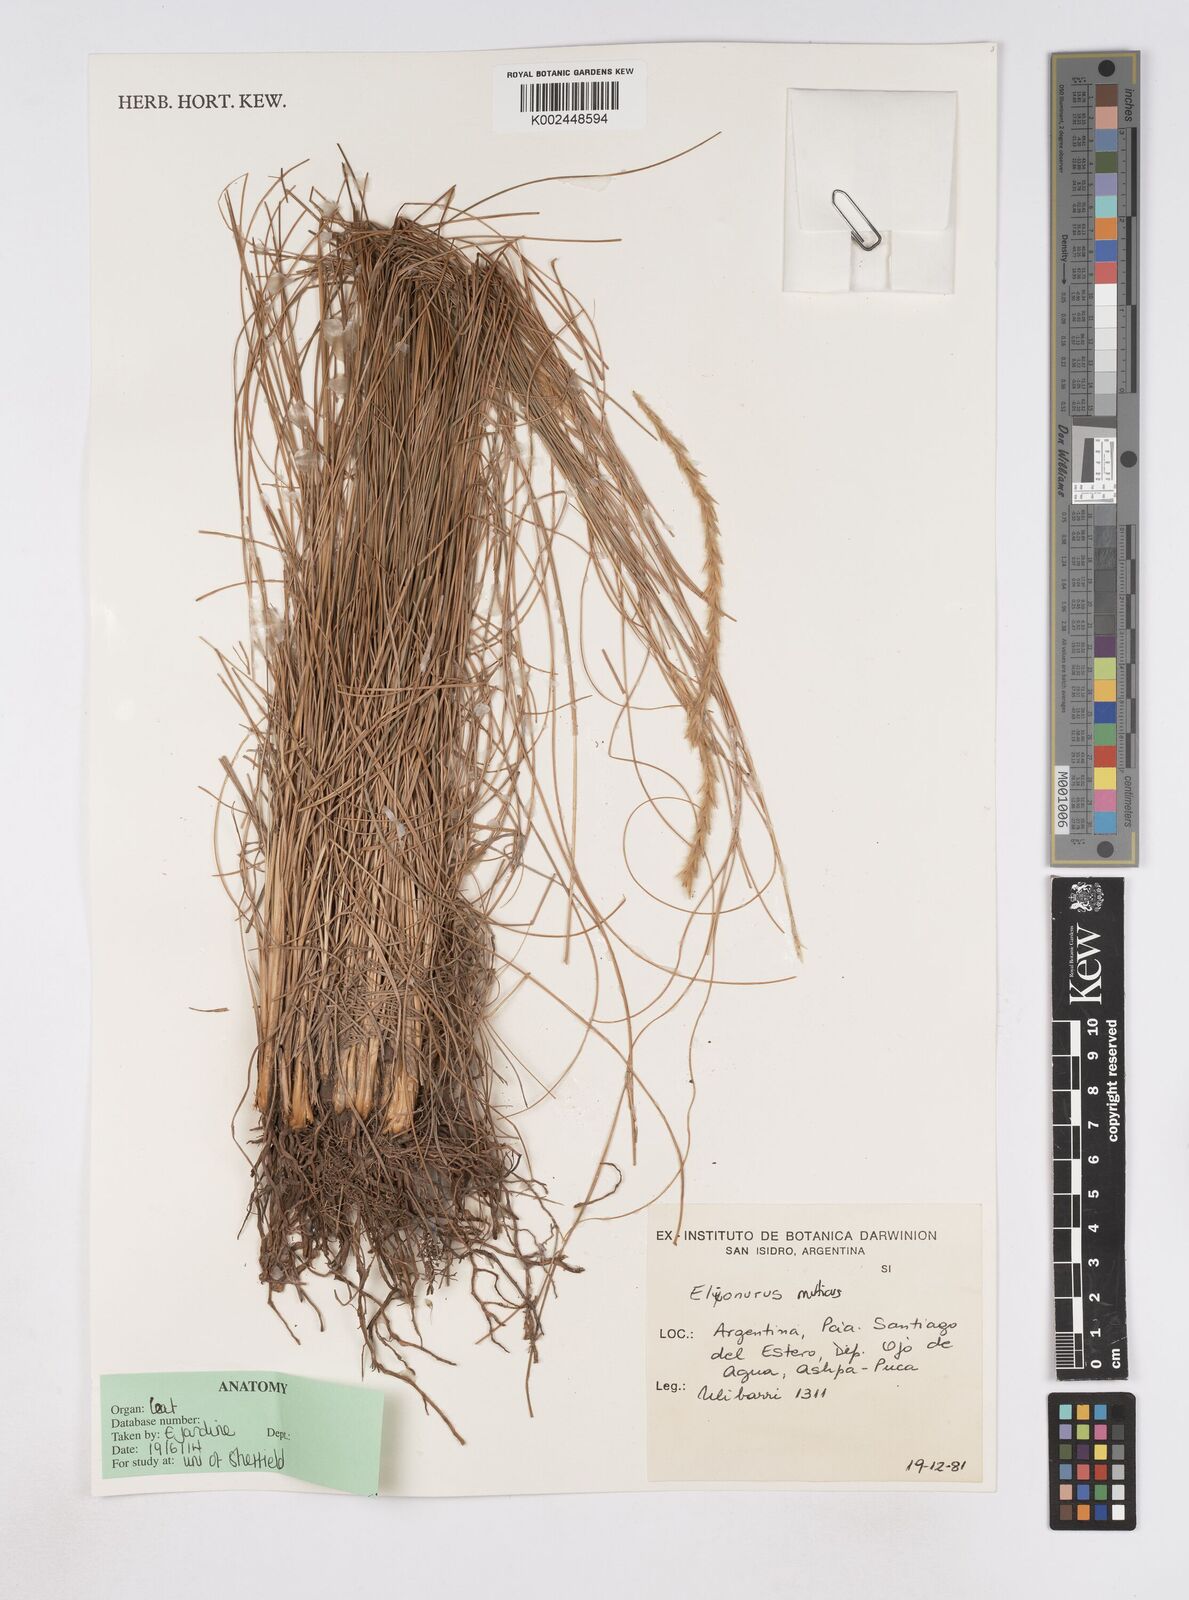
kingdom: Plantae
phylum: Tracheophyta
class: Liliopsida
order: Poales
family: Poaceae
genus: Elionurus
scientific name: Elionurus muticus
